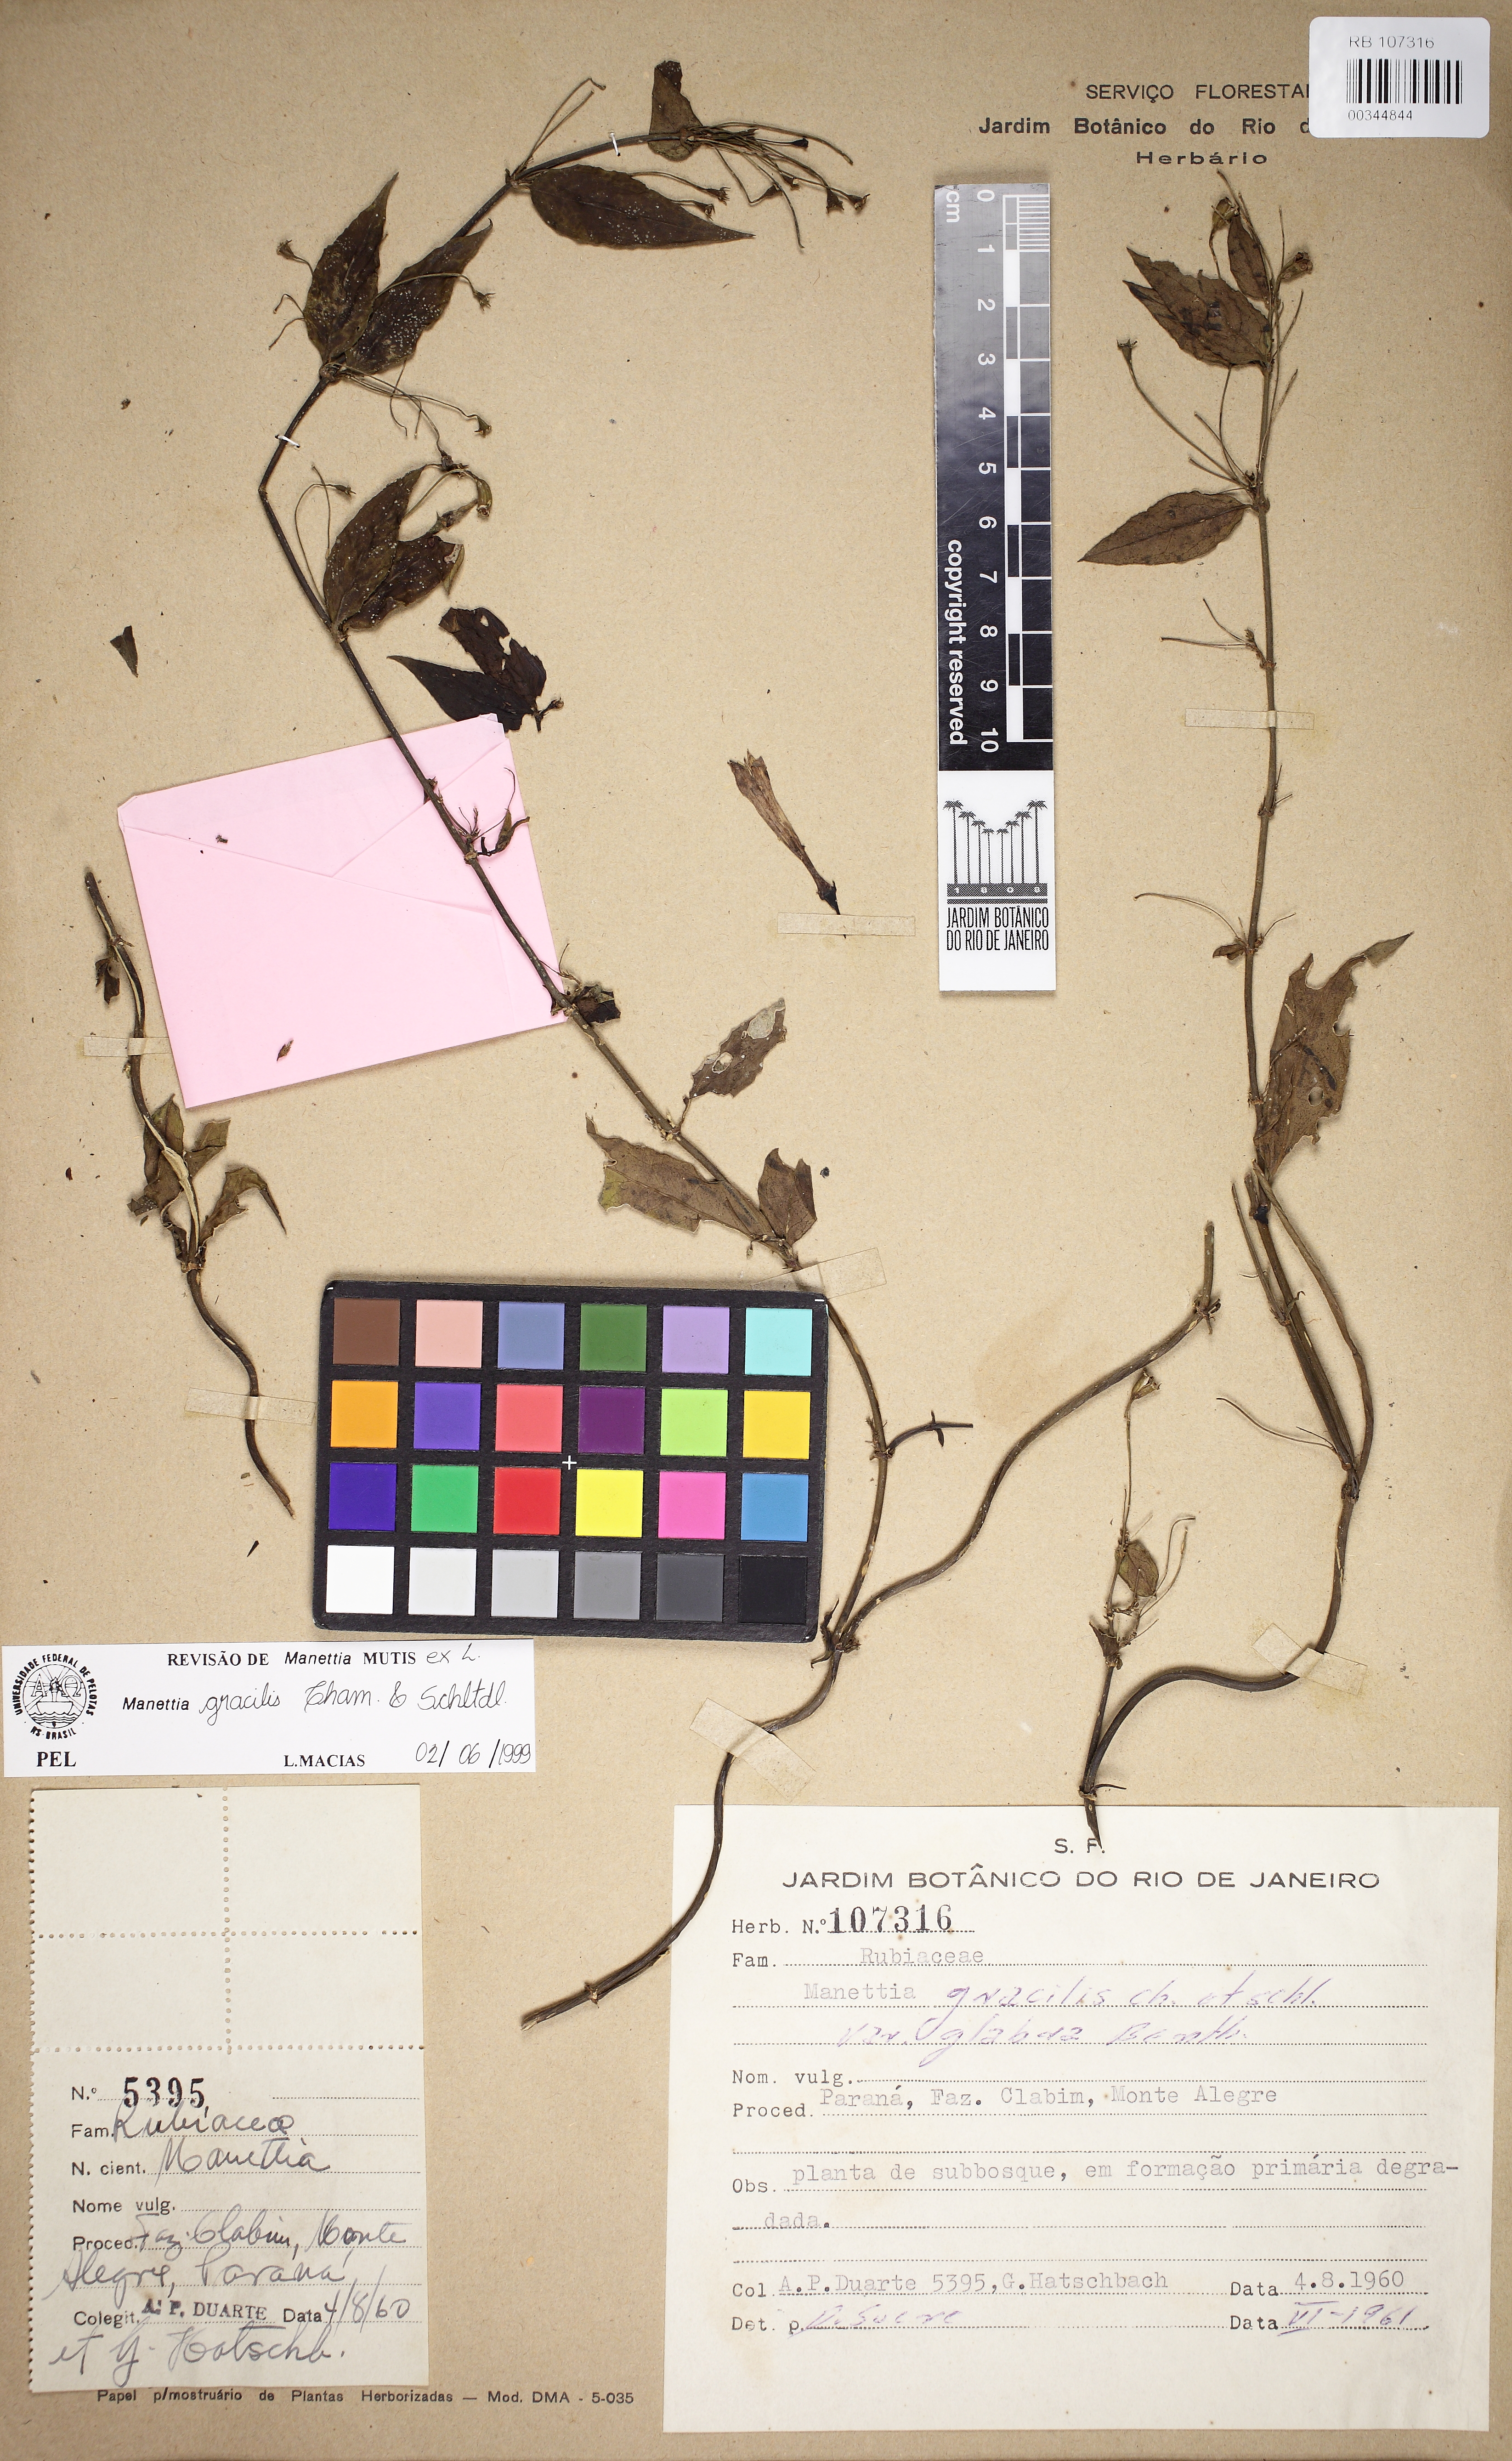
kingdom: Plantae
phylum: Tracheophyta
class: Magnoliopsida
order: Gentianales
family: Rubiaceae
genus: Manettia
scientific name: Manettia gracilis
